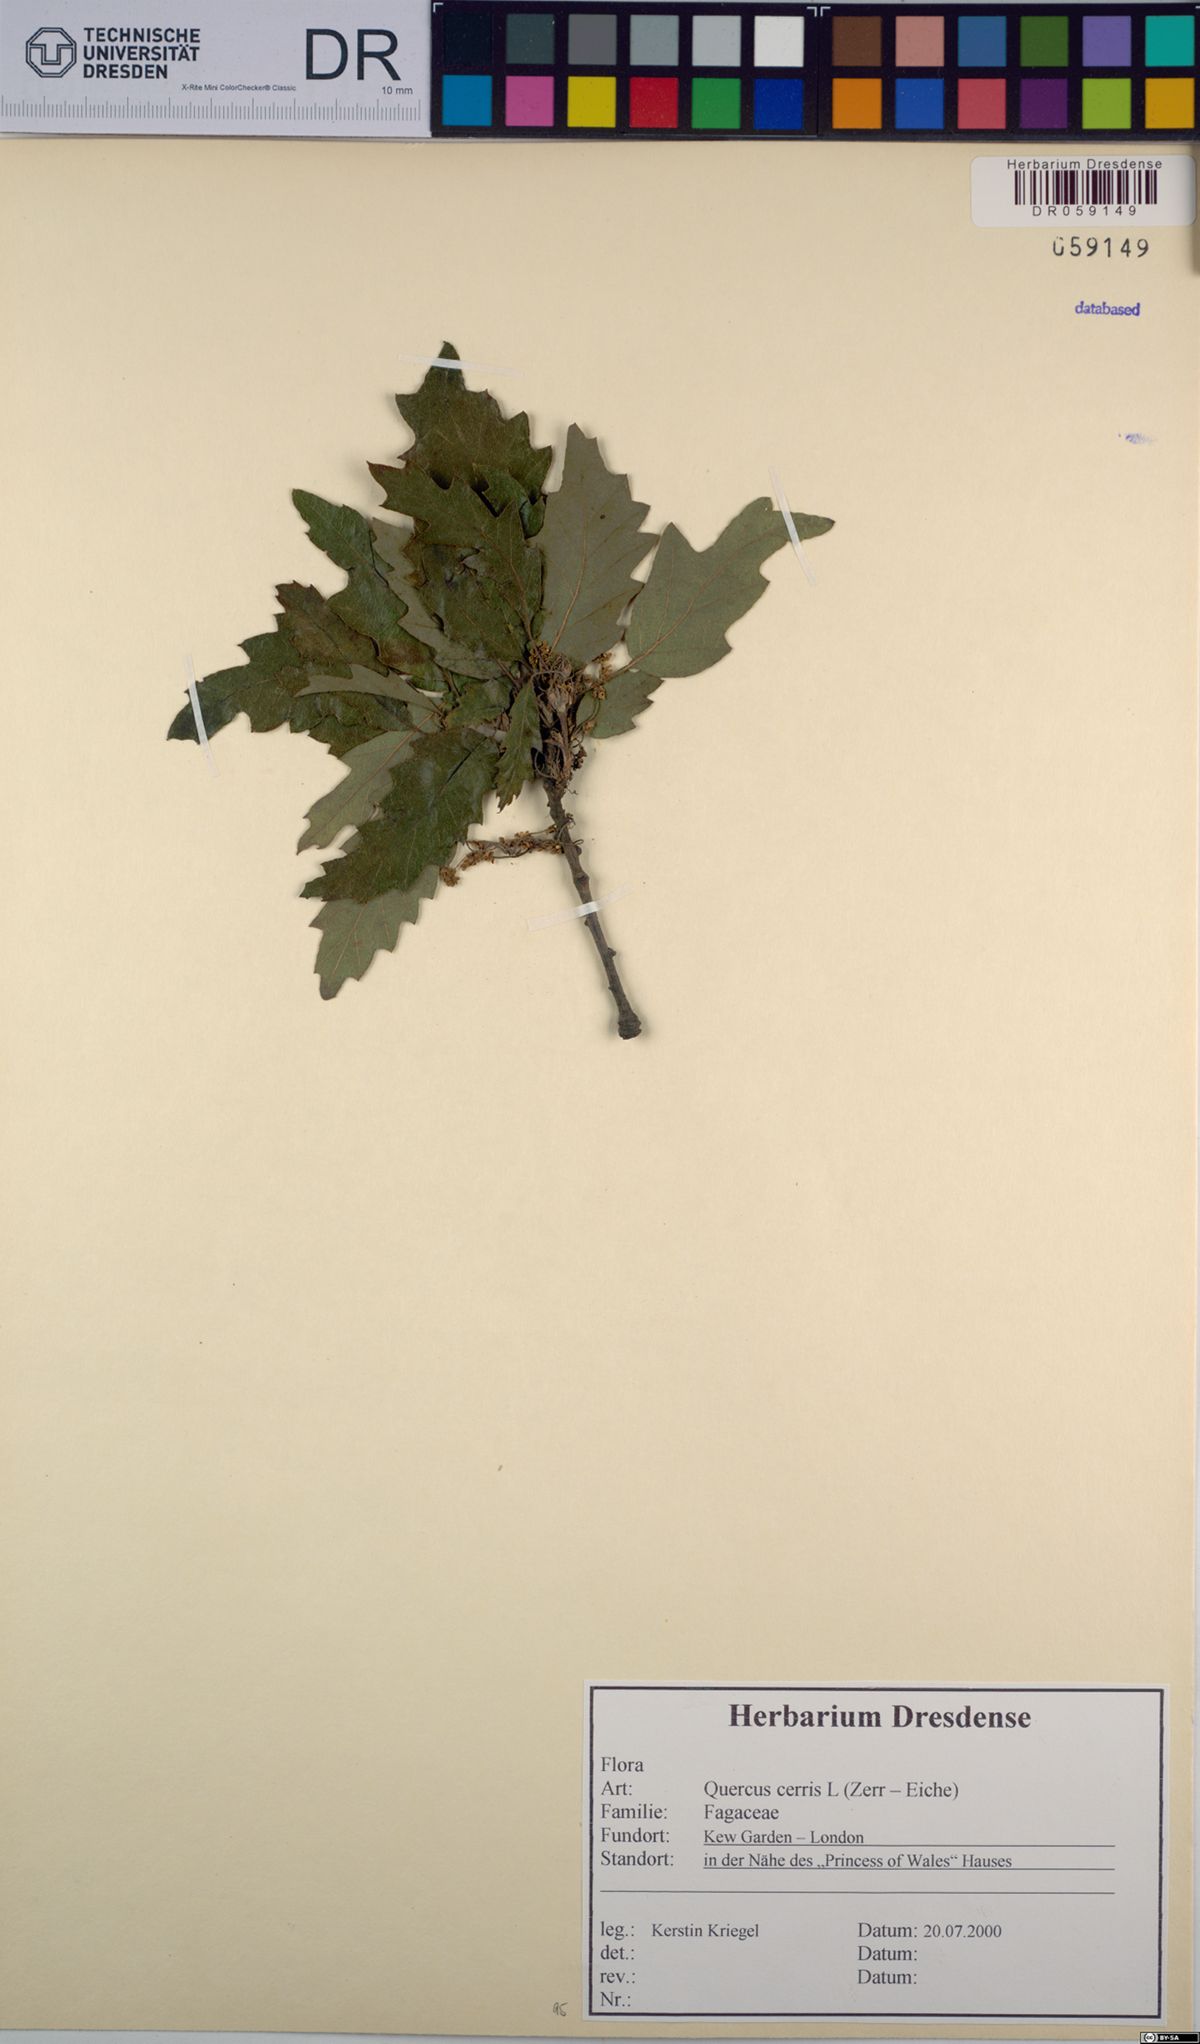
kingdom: Plantae
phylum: Tracheophyta
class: Magnoliopsida
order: Fagales
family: Fagaceae
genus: Quercus
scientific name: Quercus cerris
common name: Turkey oak
